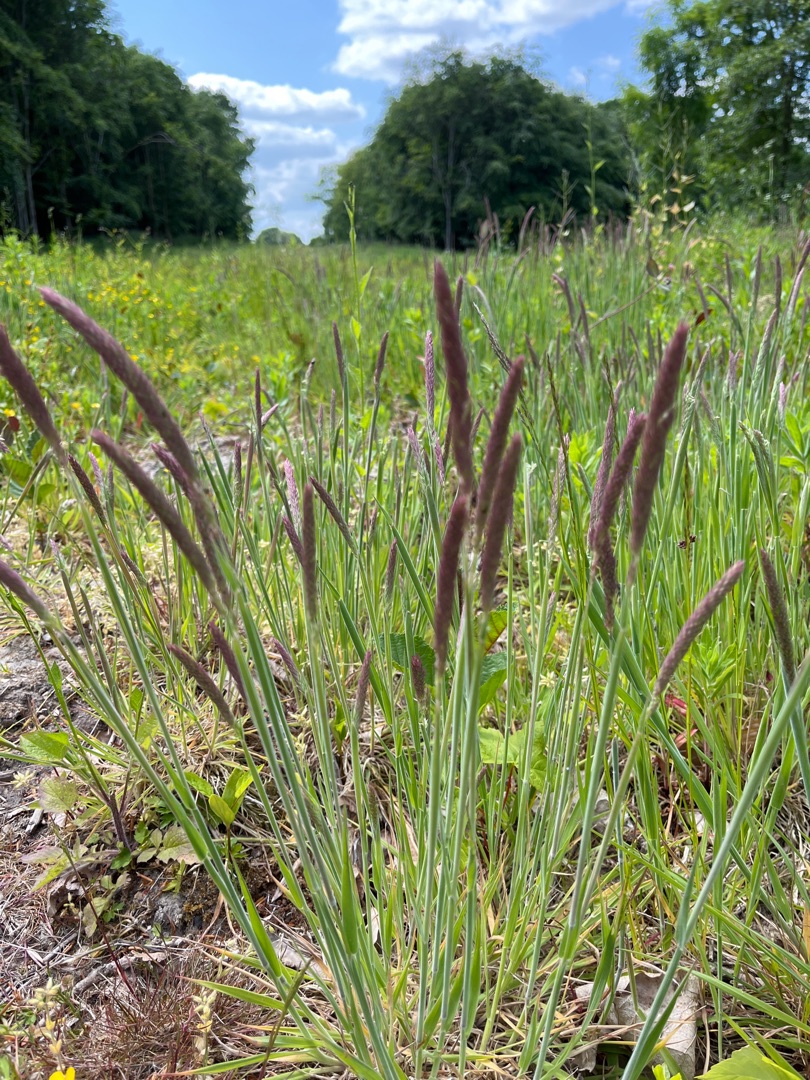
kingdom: Plantae
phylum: Tracheophyta
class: Liliopsida
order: Poales
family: Poaceae
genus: Holcus
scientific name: Holcus lanatus
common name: Fløjlsgræs
